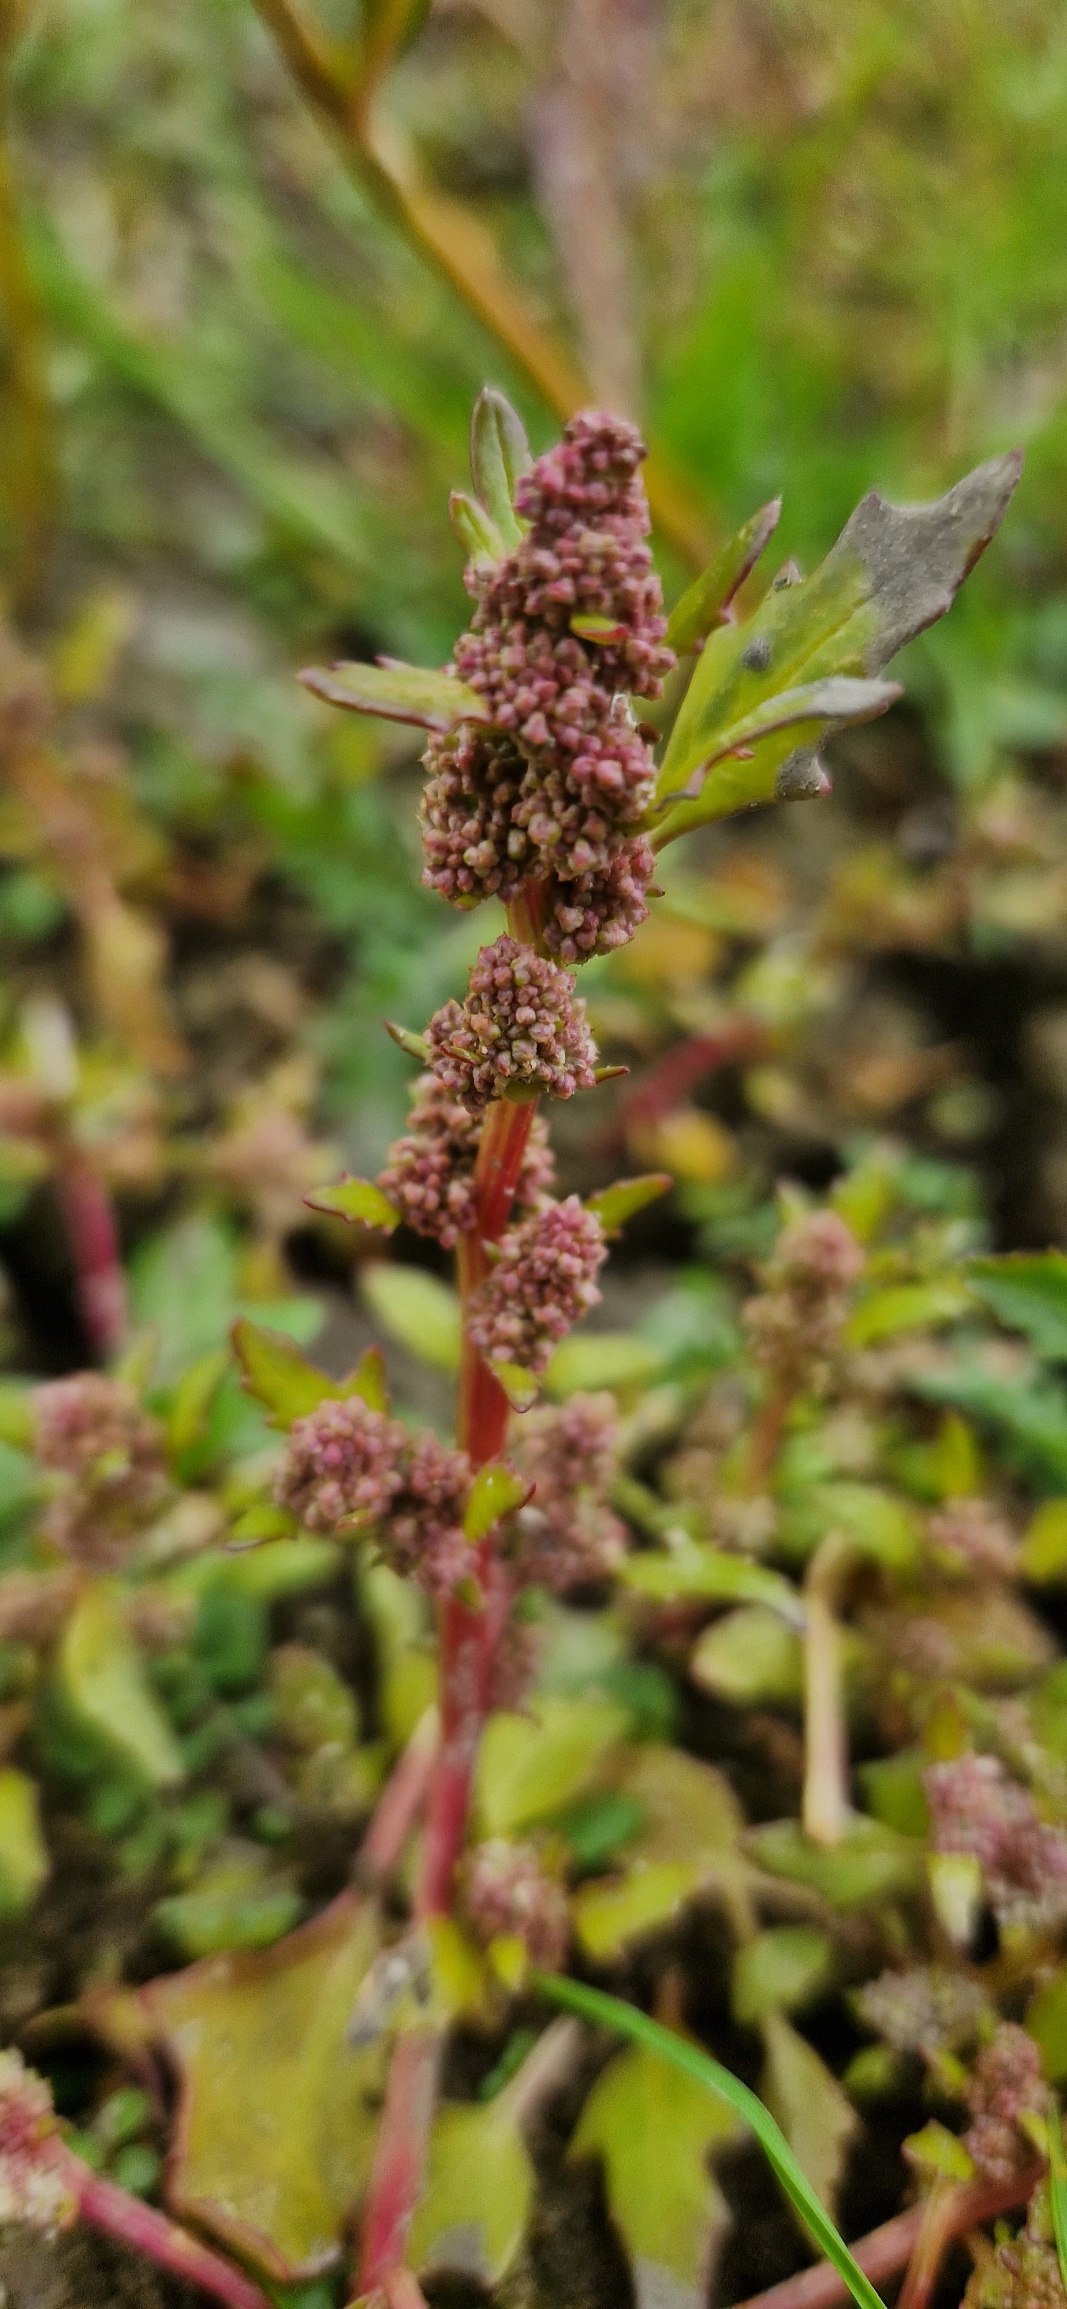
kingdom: Plantae
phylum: Tracheophyta
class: Magnoliopsida
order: Caryophyllales
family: Amaranthaceae
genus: Oxybasis
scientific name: Oxybasis rubra
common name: Rød gåsefod
